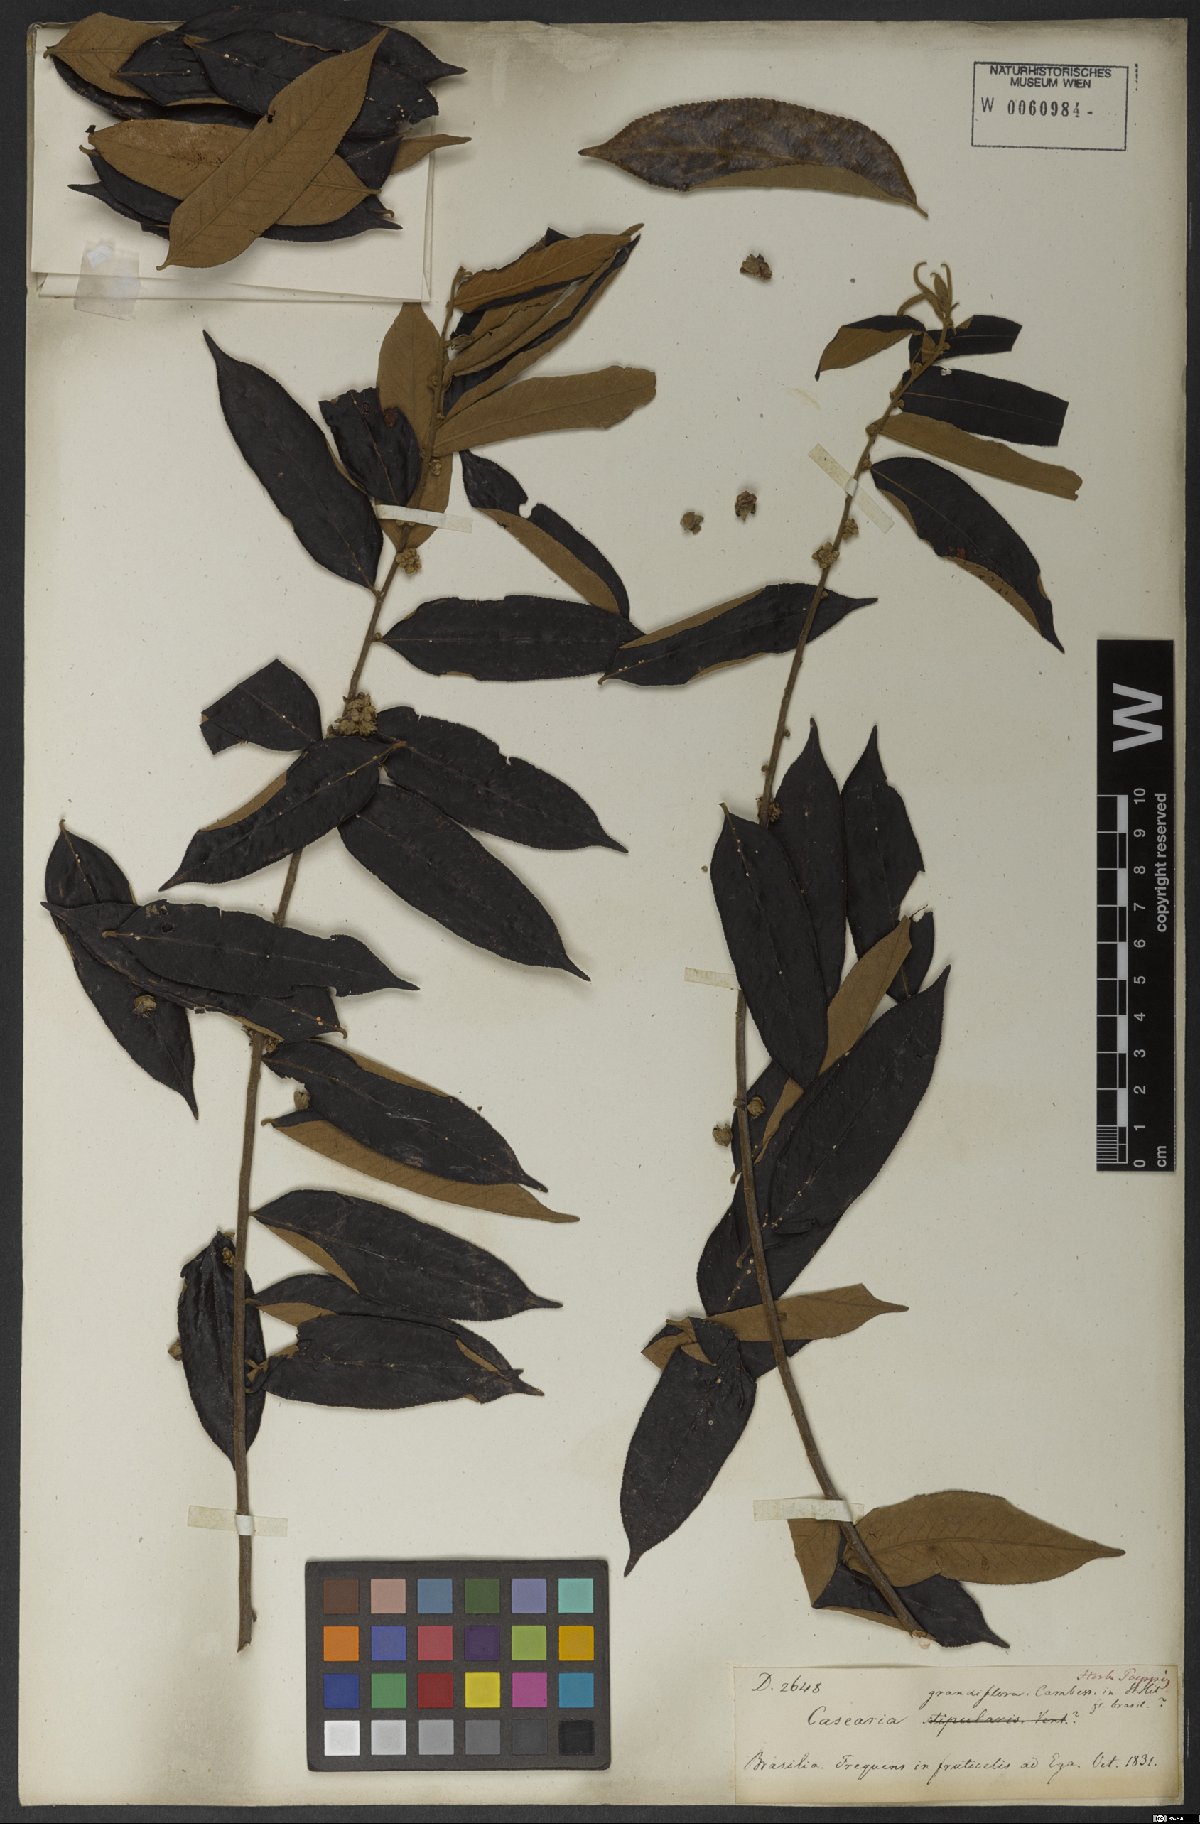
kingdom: Plantae
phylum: Tracheophyta
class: Magnoliopsida
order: Malpighiales
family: Salicaceae
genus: Casearia
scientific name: Casearia grandiflora
